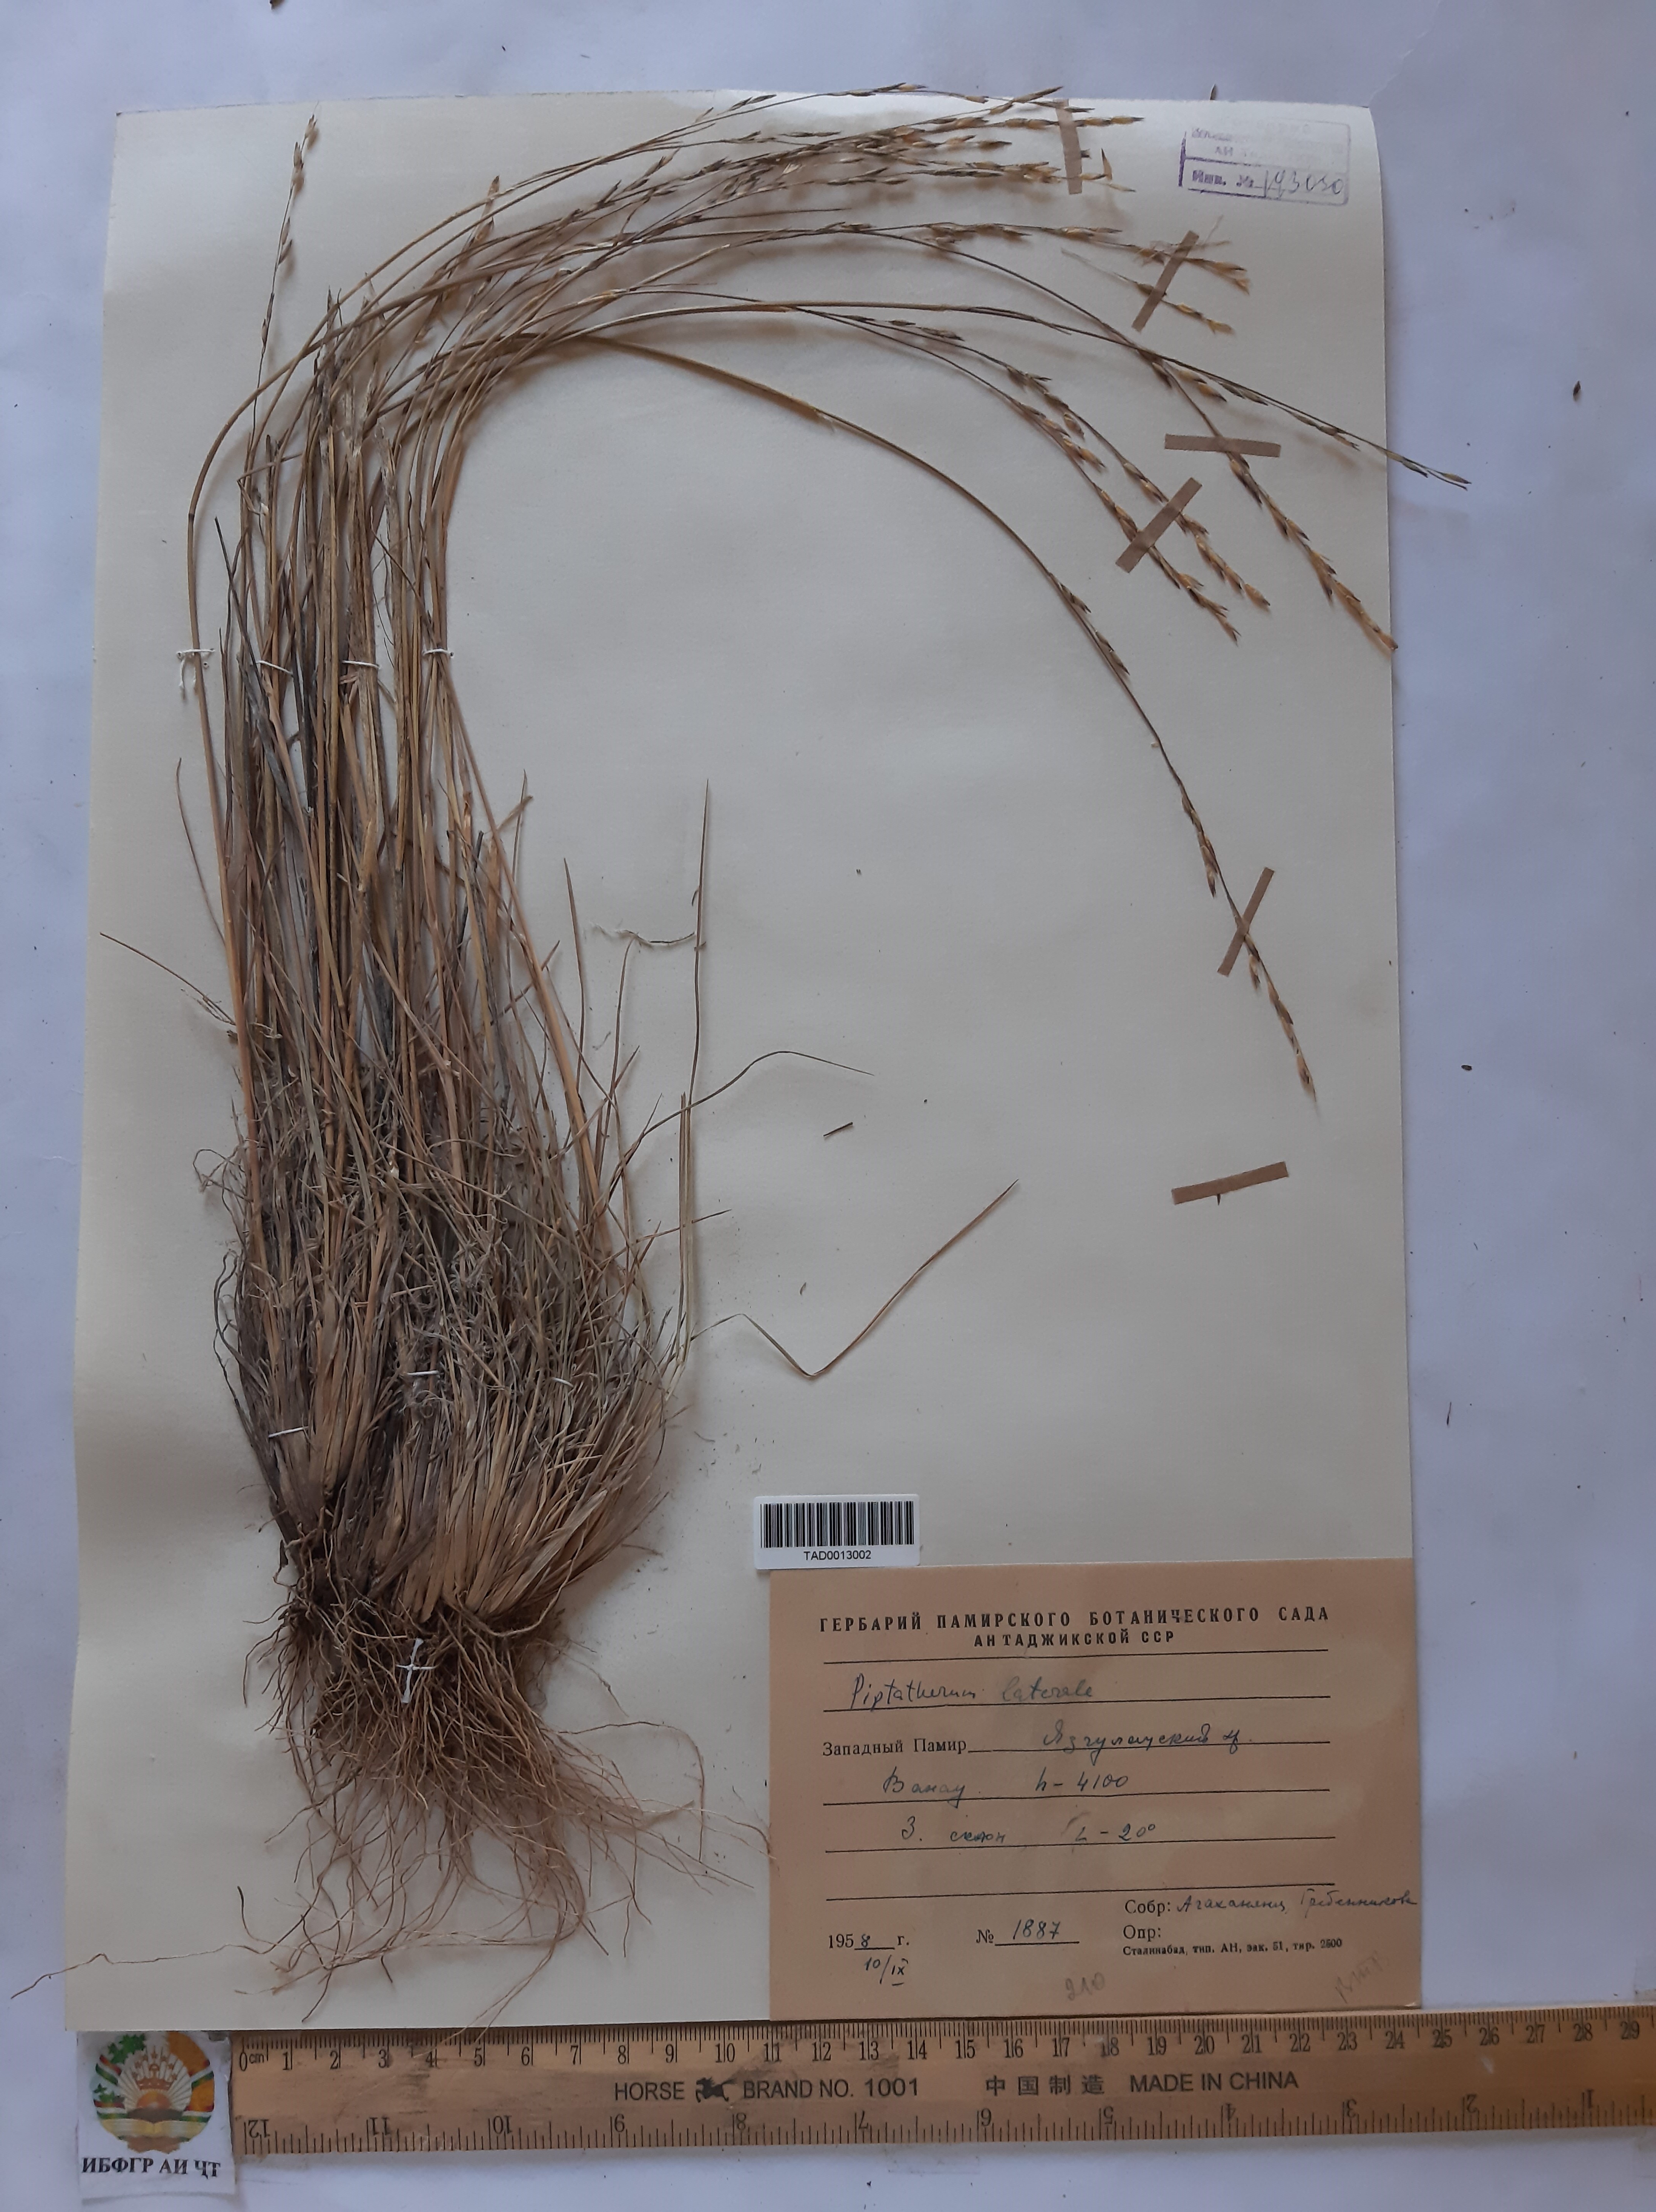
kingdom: Plantae
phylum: Tracheophyta
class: Liliopsida
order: Poales
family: Poaceae
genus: Piptatherum
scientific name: Piptatherum laterale
